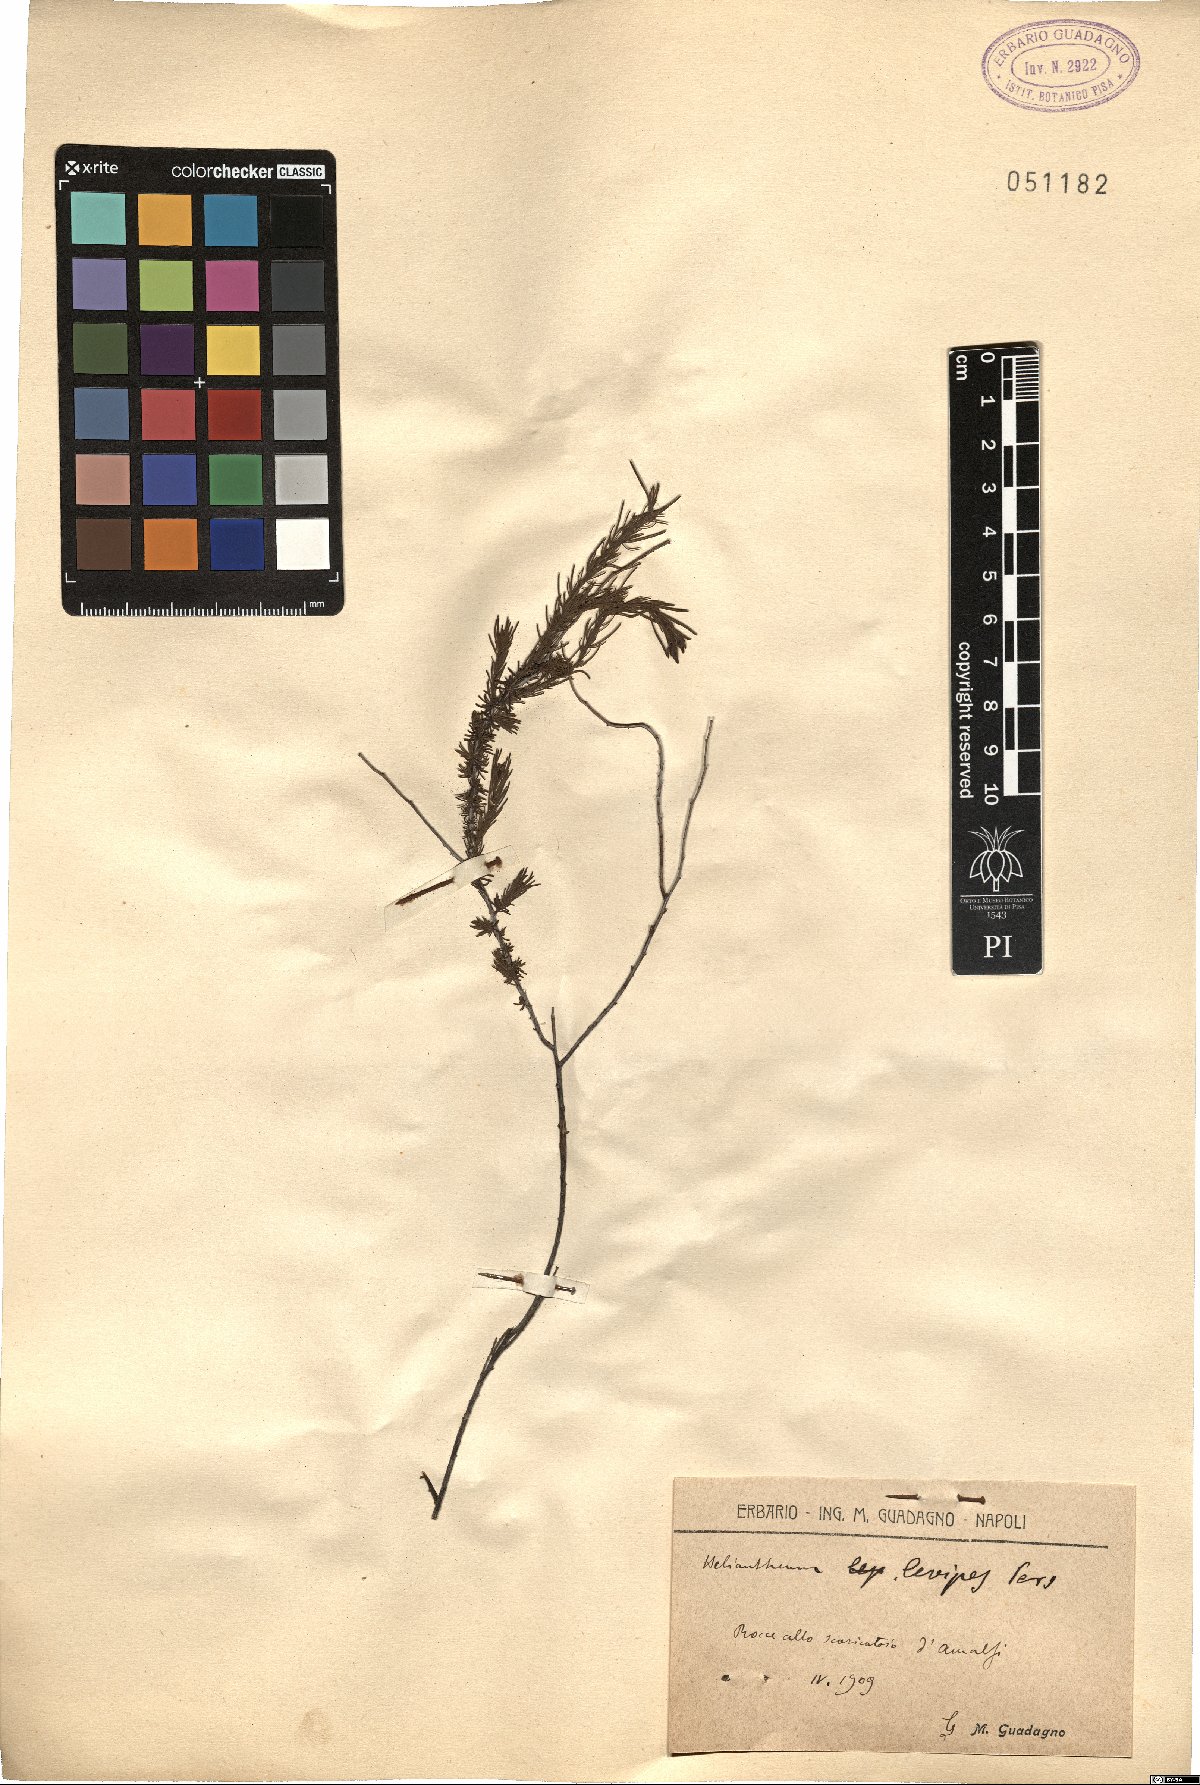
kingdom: Plantae
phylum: Tracheophyta
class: Magnoliopsida
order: Malvales
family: Cistaceae
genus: Fumana
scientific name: Fumana laevipes
